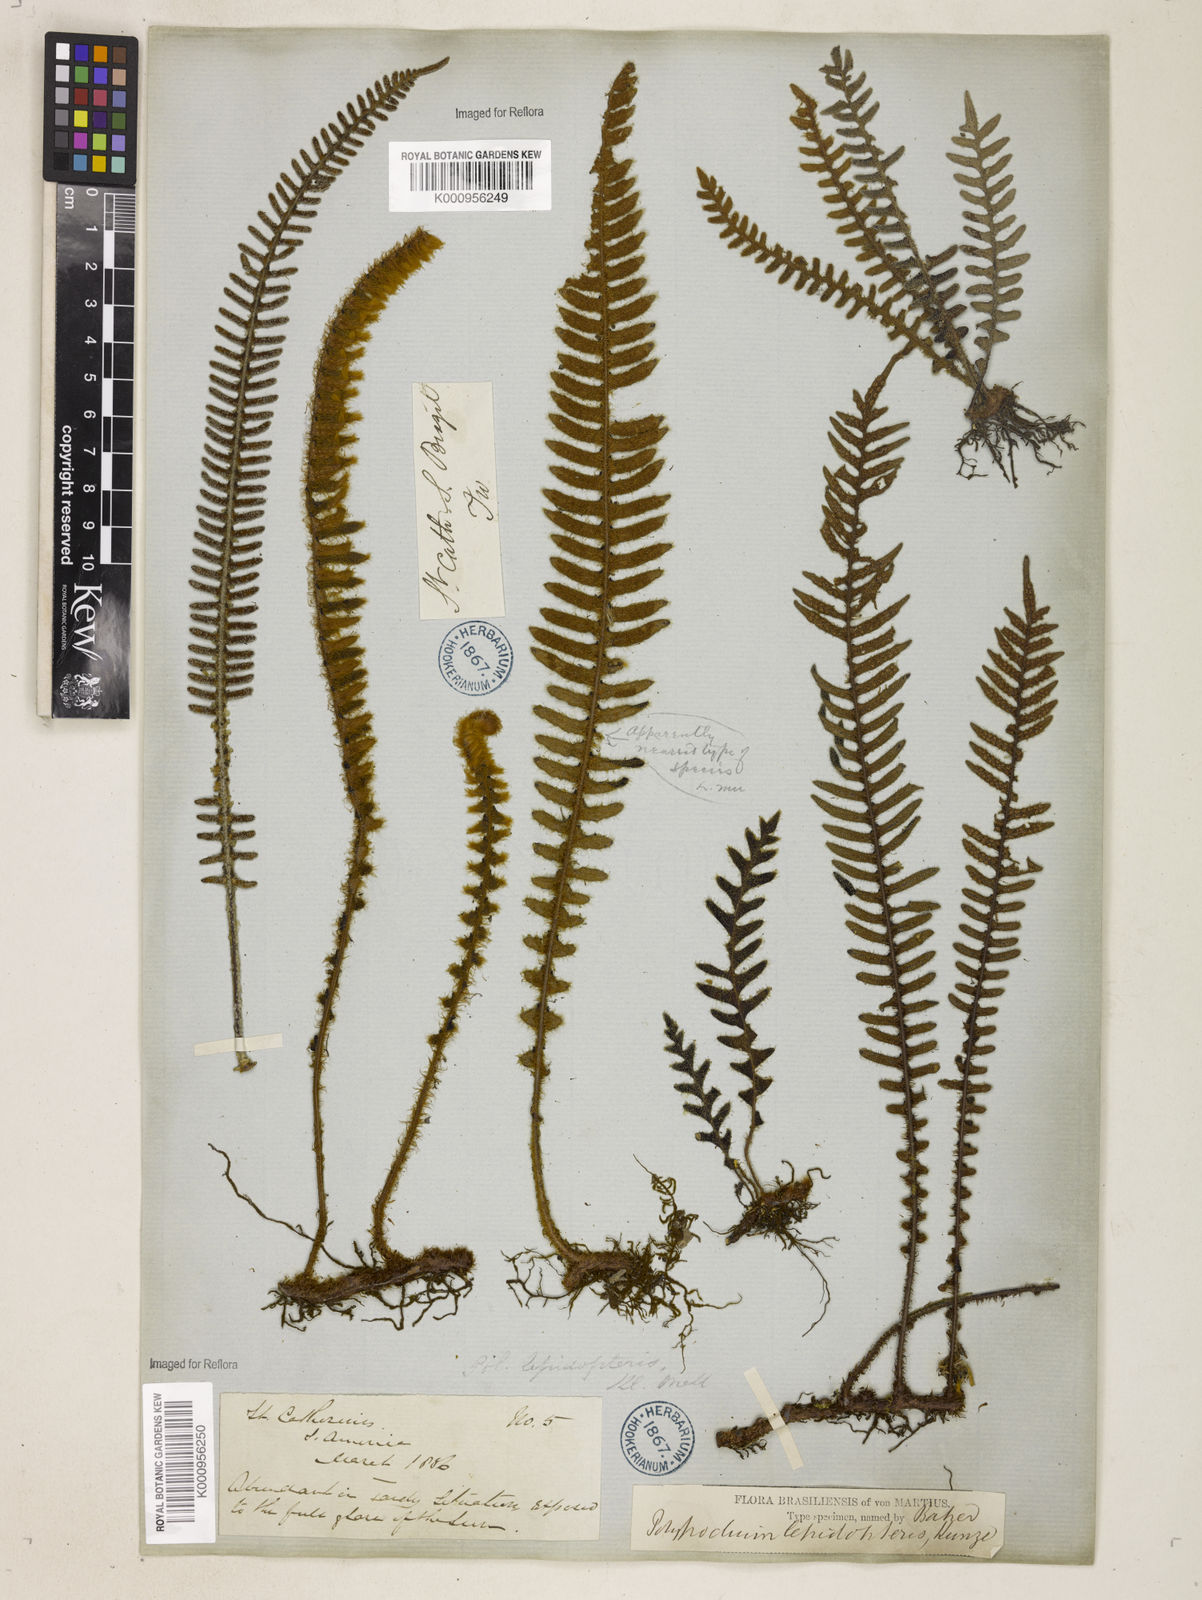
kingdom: Plantae
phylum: Tracheophyta
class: Polypodiopsida
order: Polypodiales
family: Polypodiaceae
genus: Pleopeltis
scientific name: Pleopeltis hirsutissima
